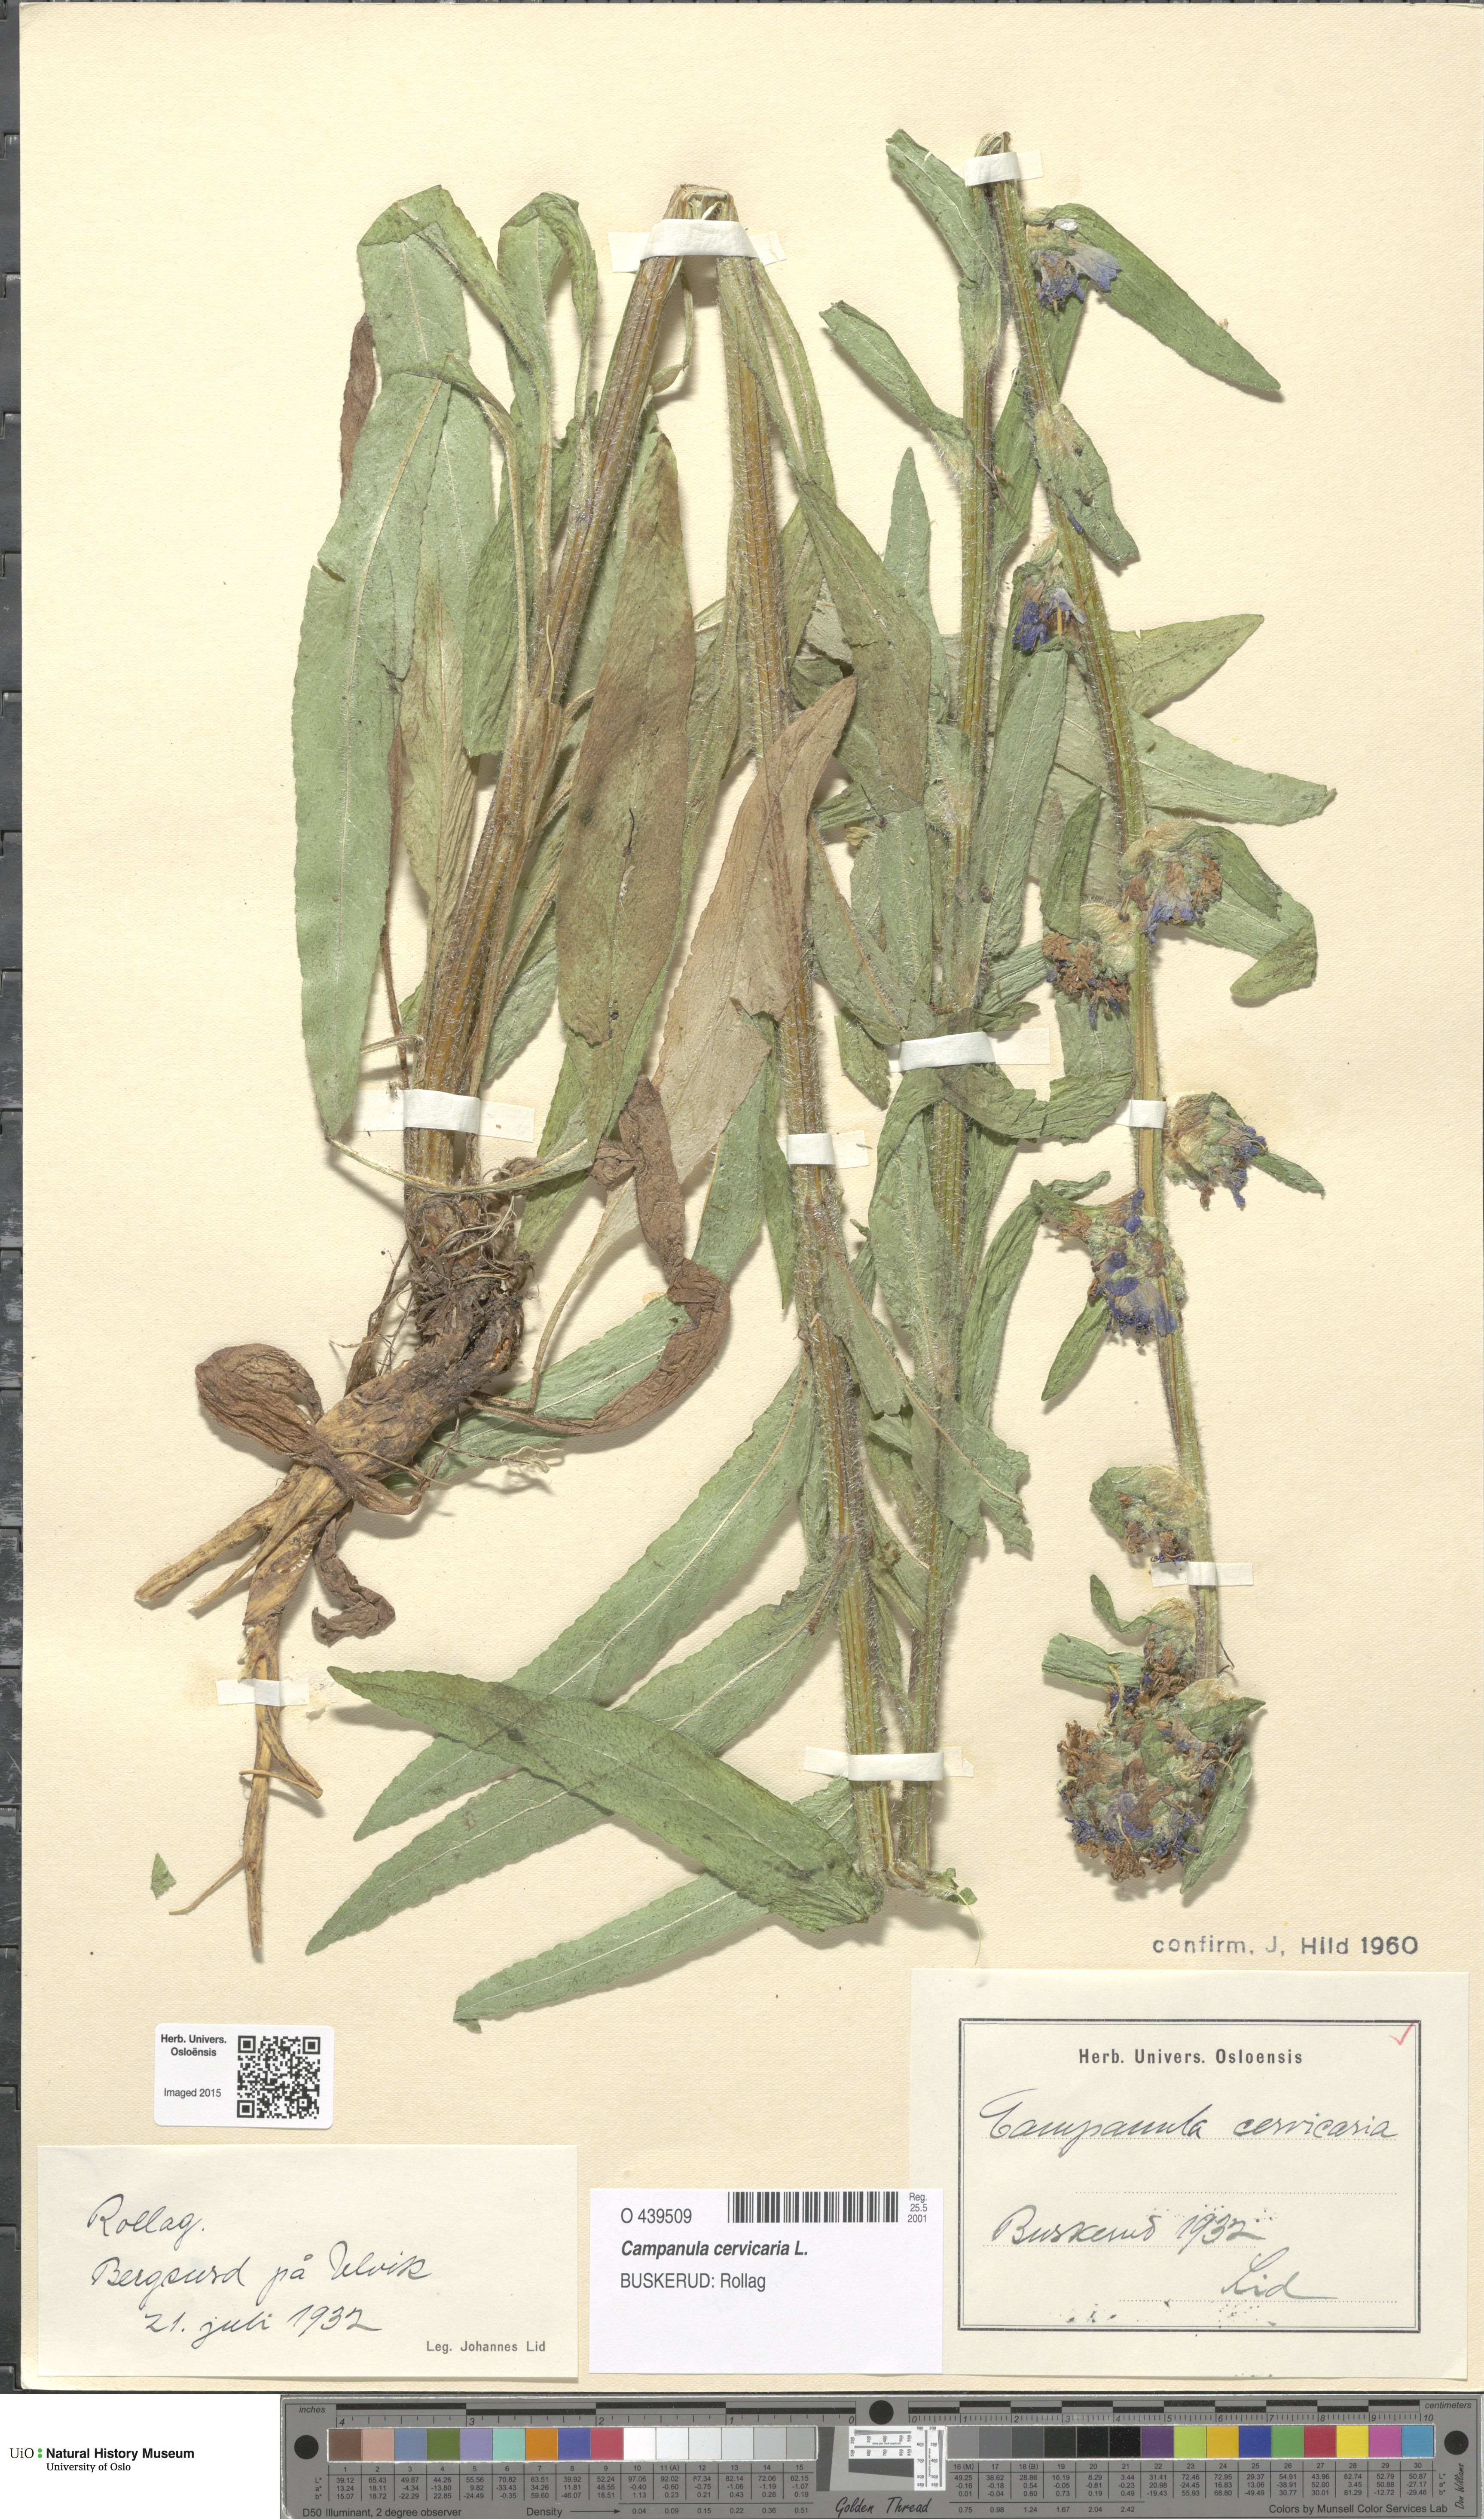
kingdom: Plantae
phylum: Tracheophyta
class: Magnoliopsida
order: Asterales
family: Campanulaceae
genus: Campanula
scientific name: Campanula cervicaria
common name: Bristly bellflower
